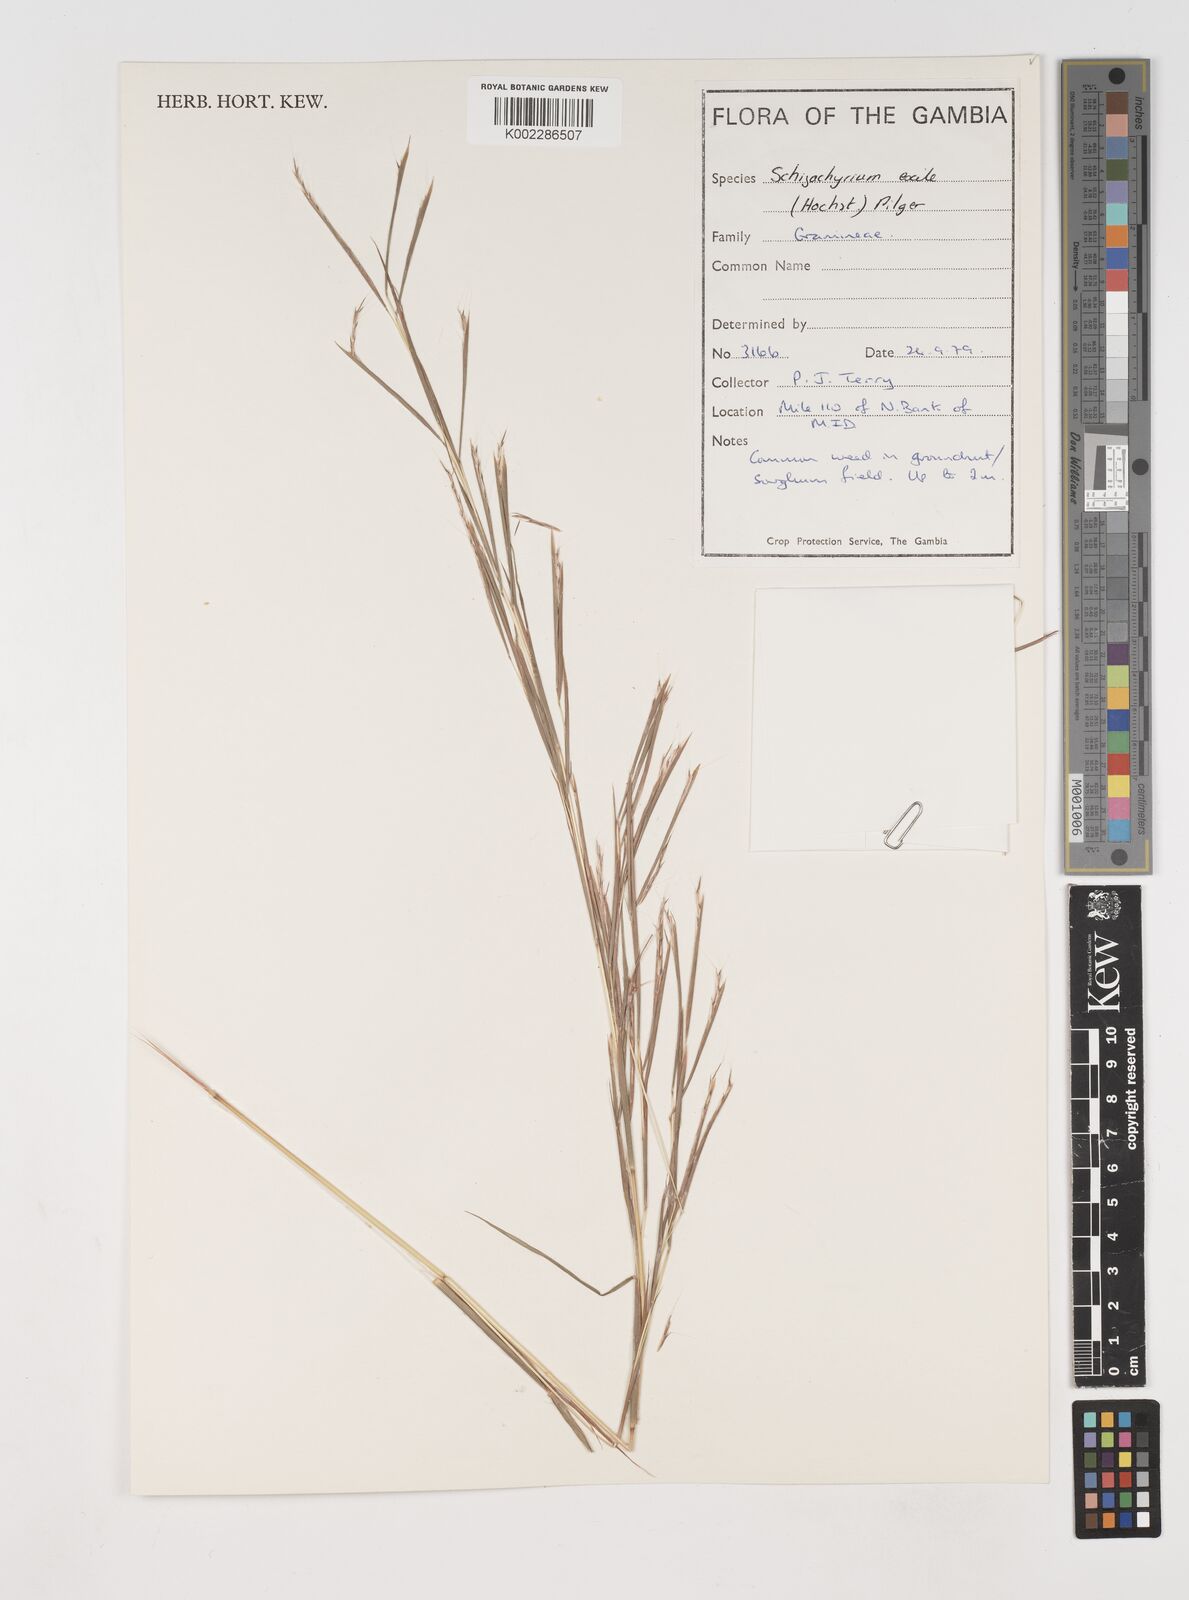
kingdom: Plantae
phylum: Tracheophyta
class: Liliopsida
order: Poales
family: Poaceae
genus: Schizachyrium
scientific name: Schizachyrium exile
